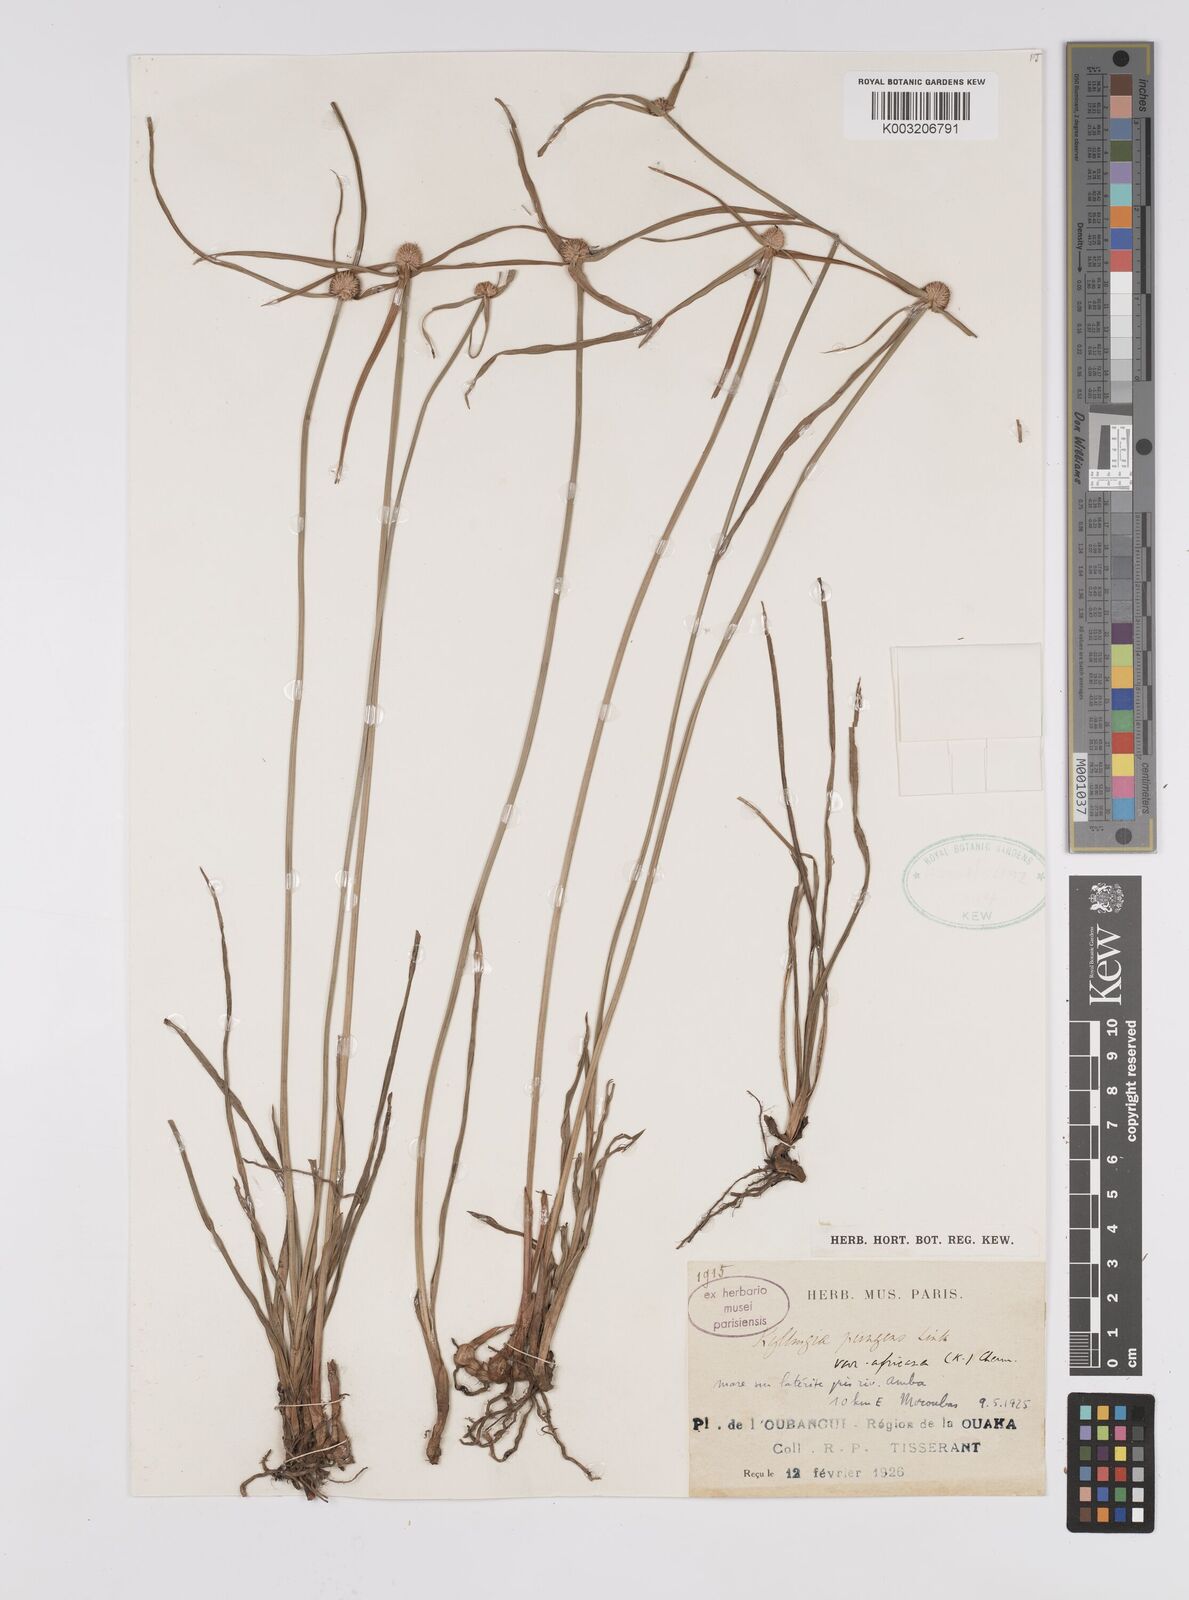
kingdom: Plantae
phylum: Tracheophyta
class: Liliopsida
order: Poales
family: Cyperaceae
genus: Cyperus
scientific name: Cyperus
